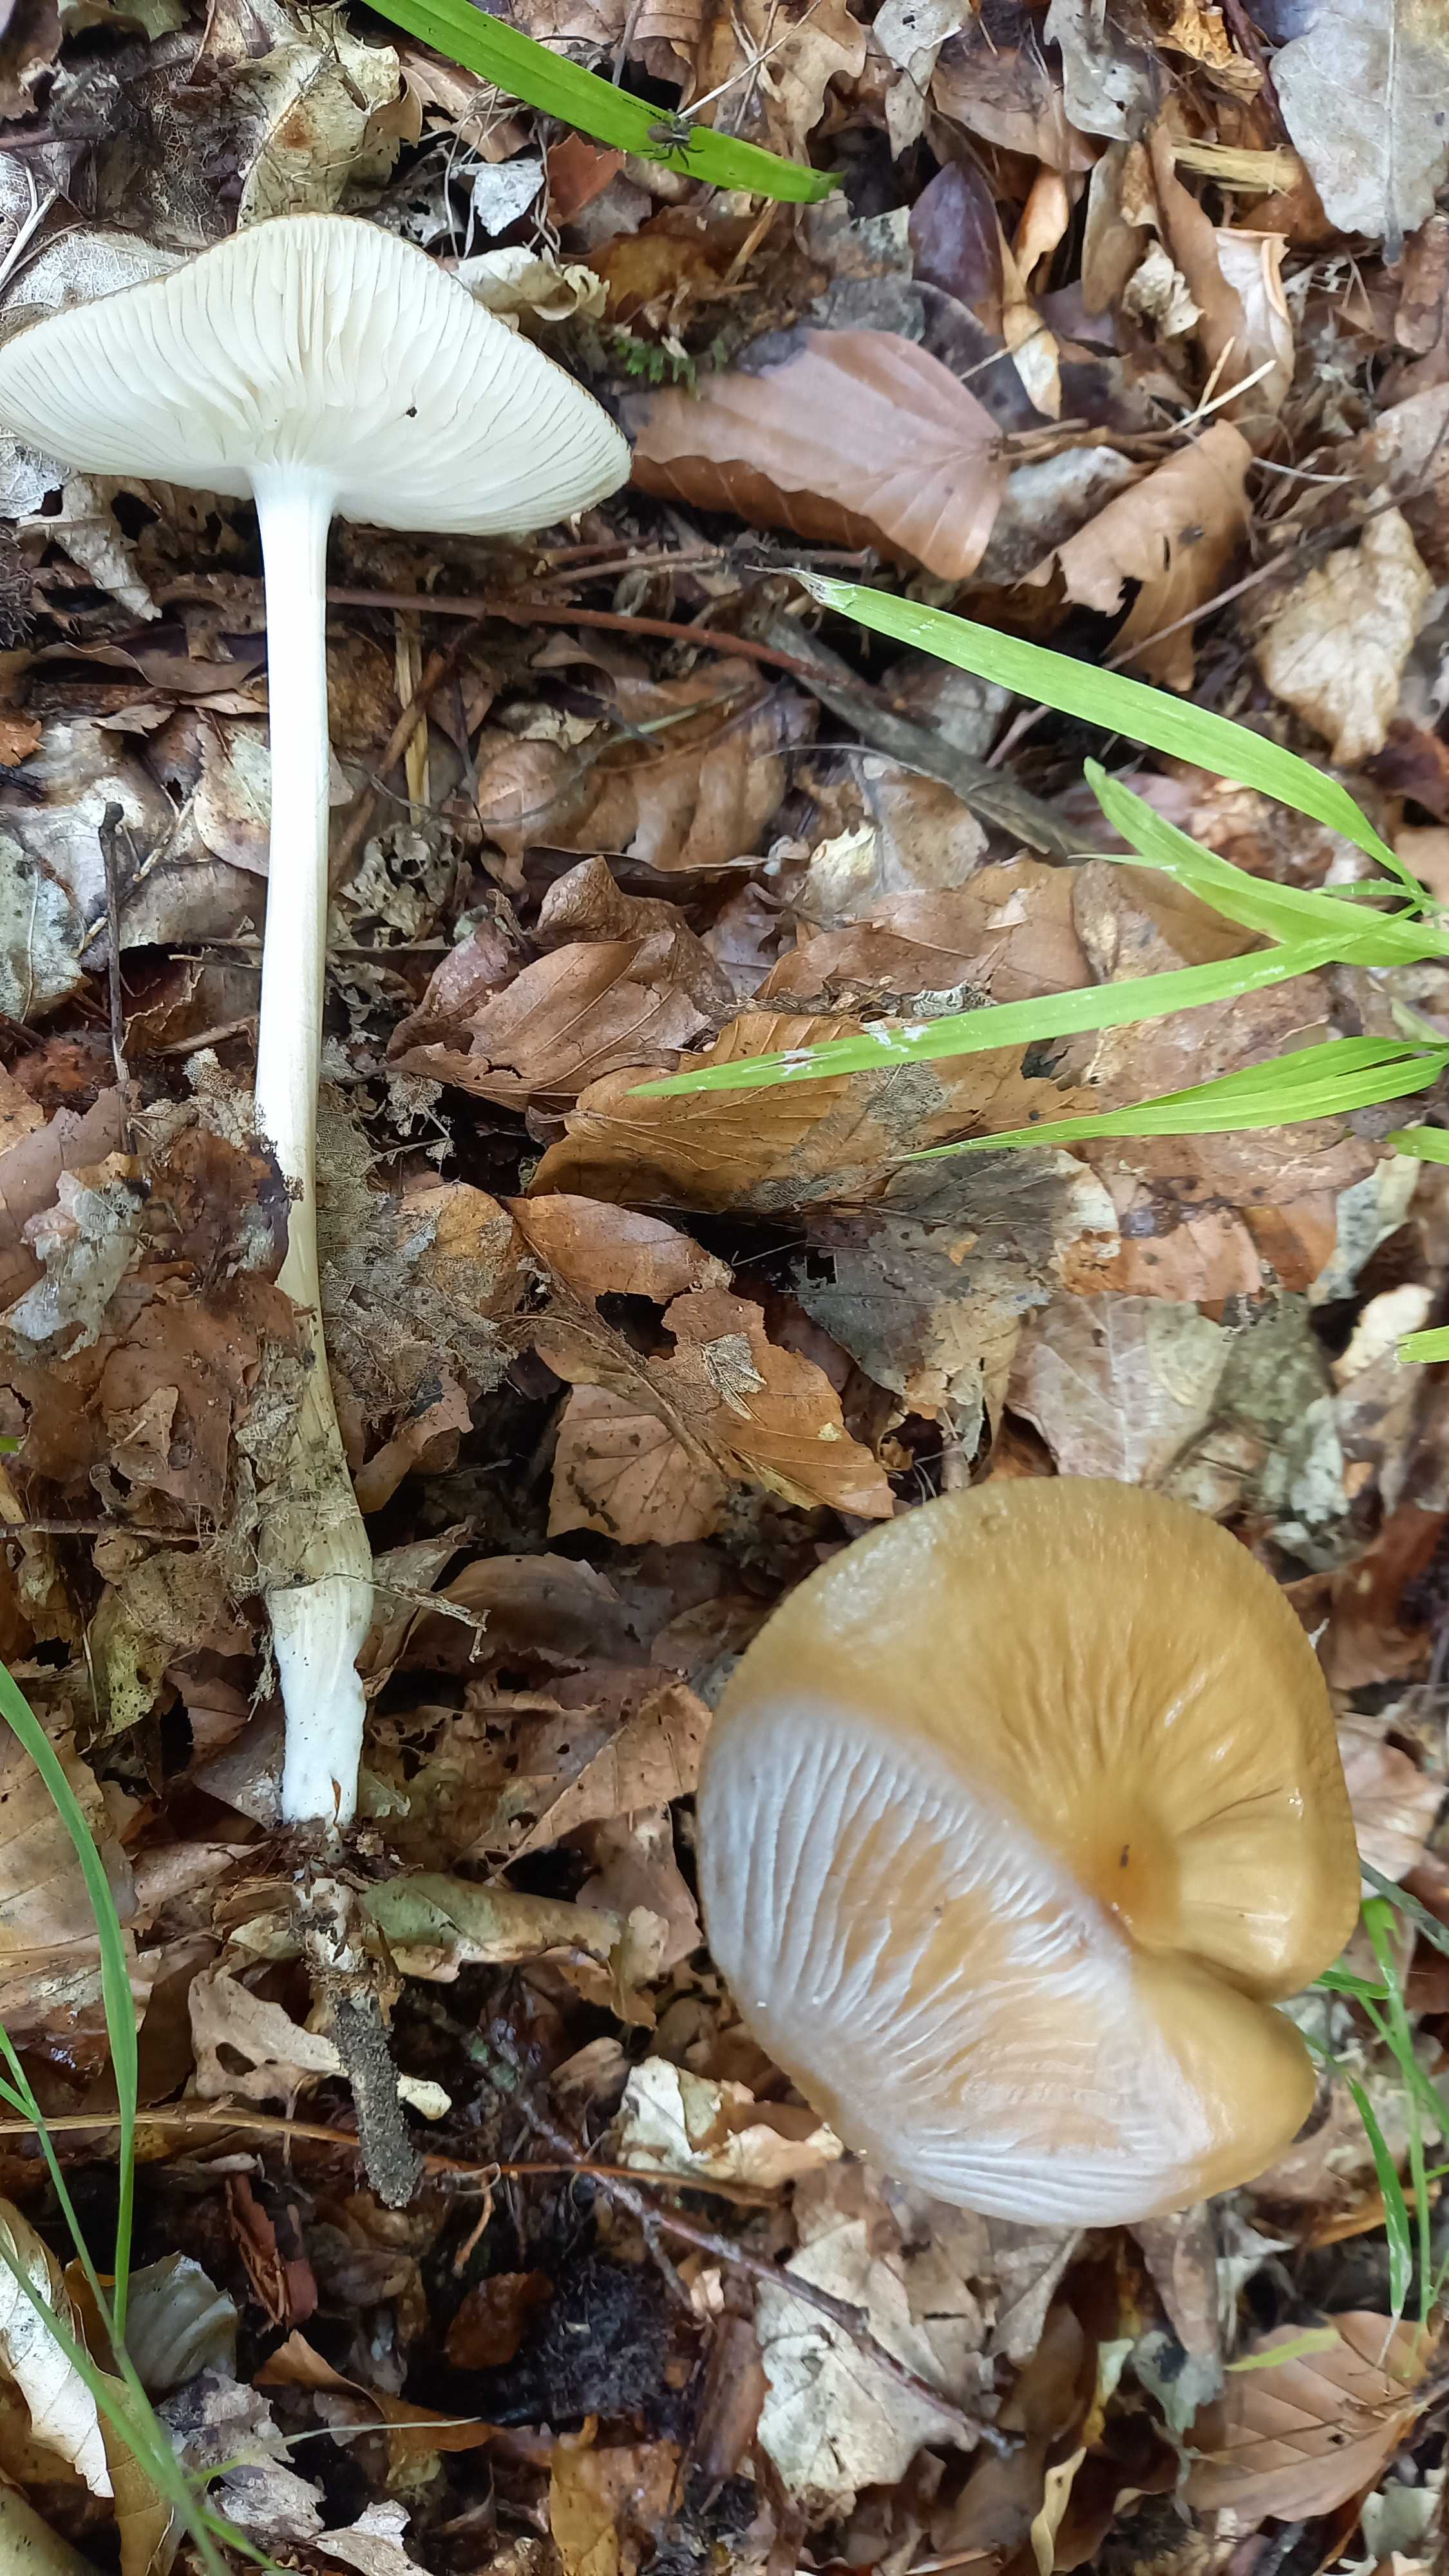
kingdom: Fungi
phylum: Basidiomycota
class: Agaricomycetes
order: Agaricales
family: Physalacriaceae
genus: Hymenopellis
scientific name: Hymenopellis radicata
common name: almindelig pælerodshat
